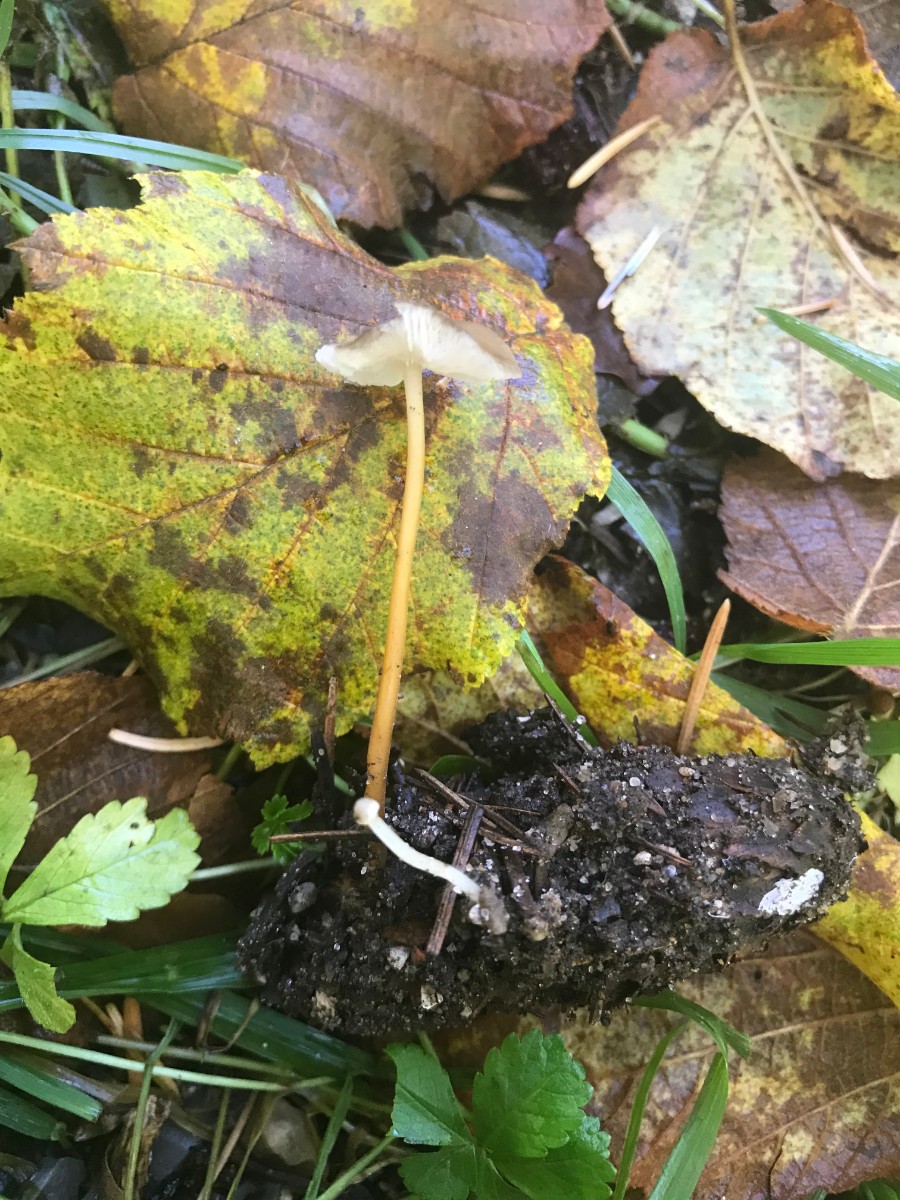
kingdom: Fungi
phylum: Basidiomycota
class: Agaricomycetes
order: Agaricales
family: Physalacriaceae
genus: Strobilurus
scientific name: Strobilurus esculentus
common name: gran-koglehat
